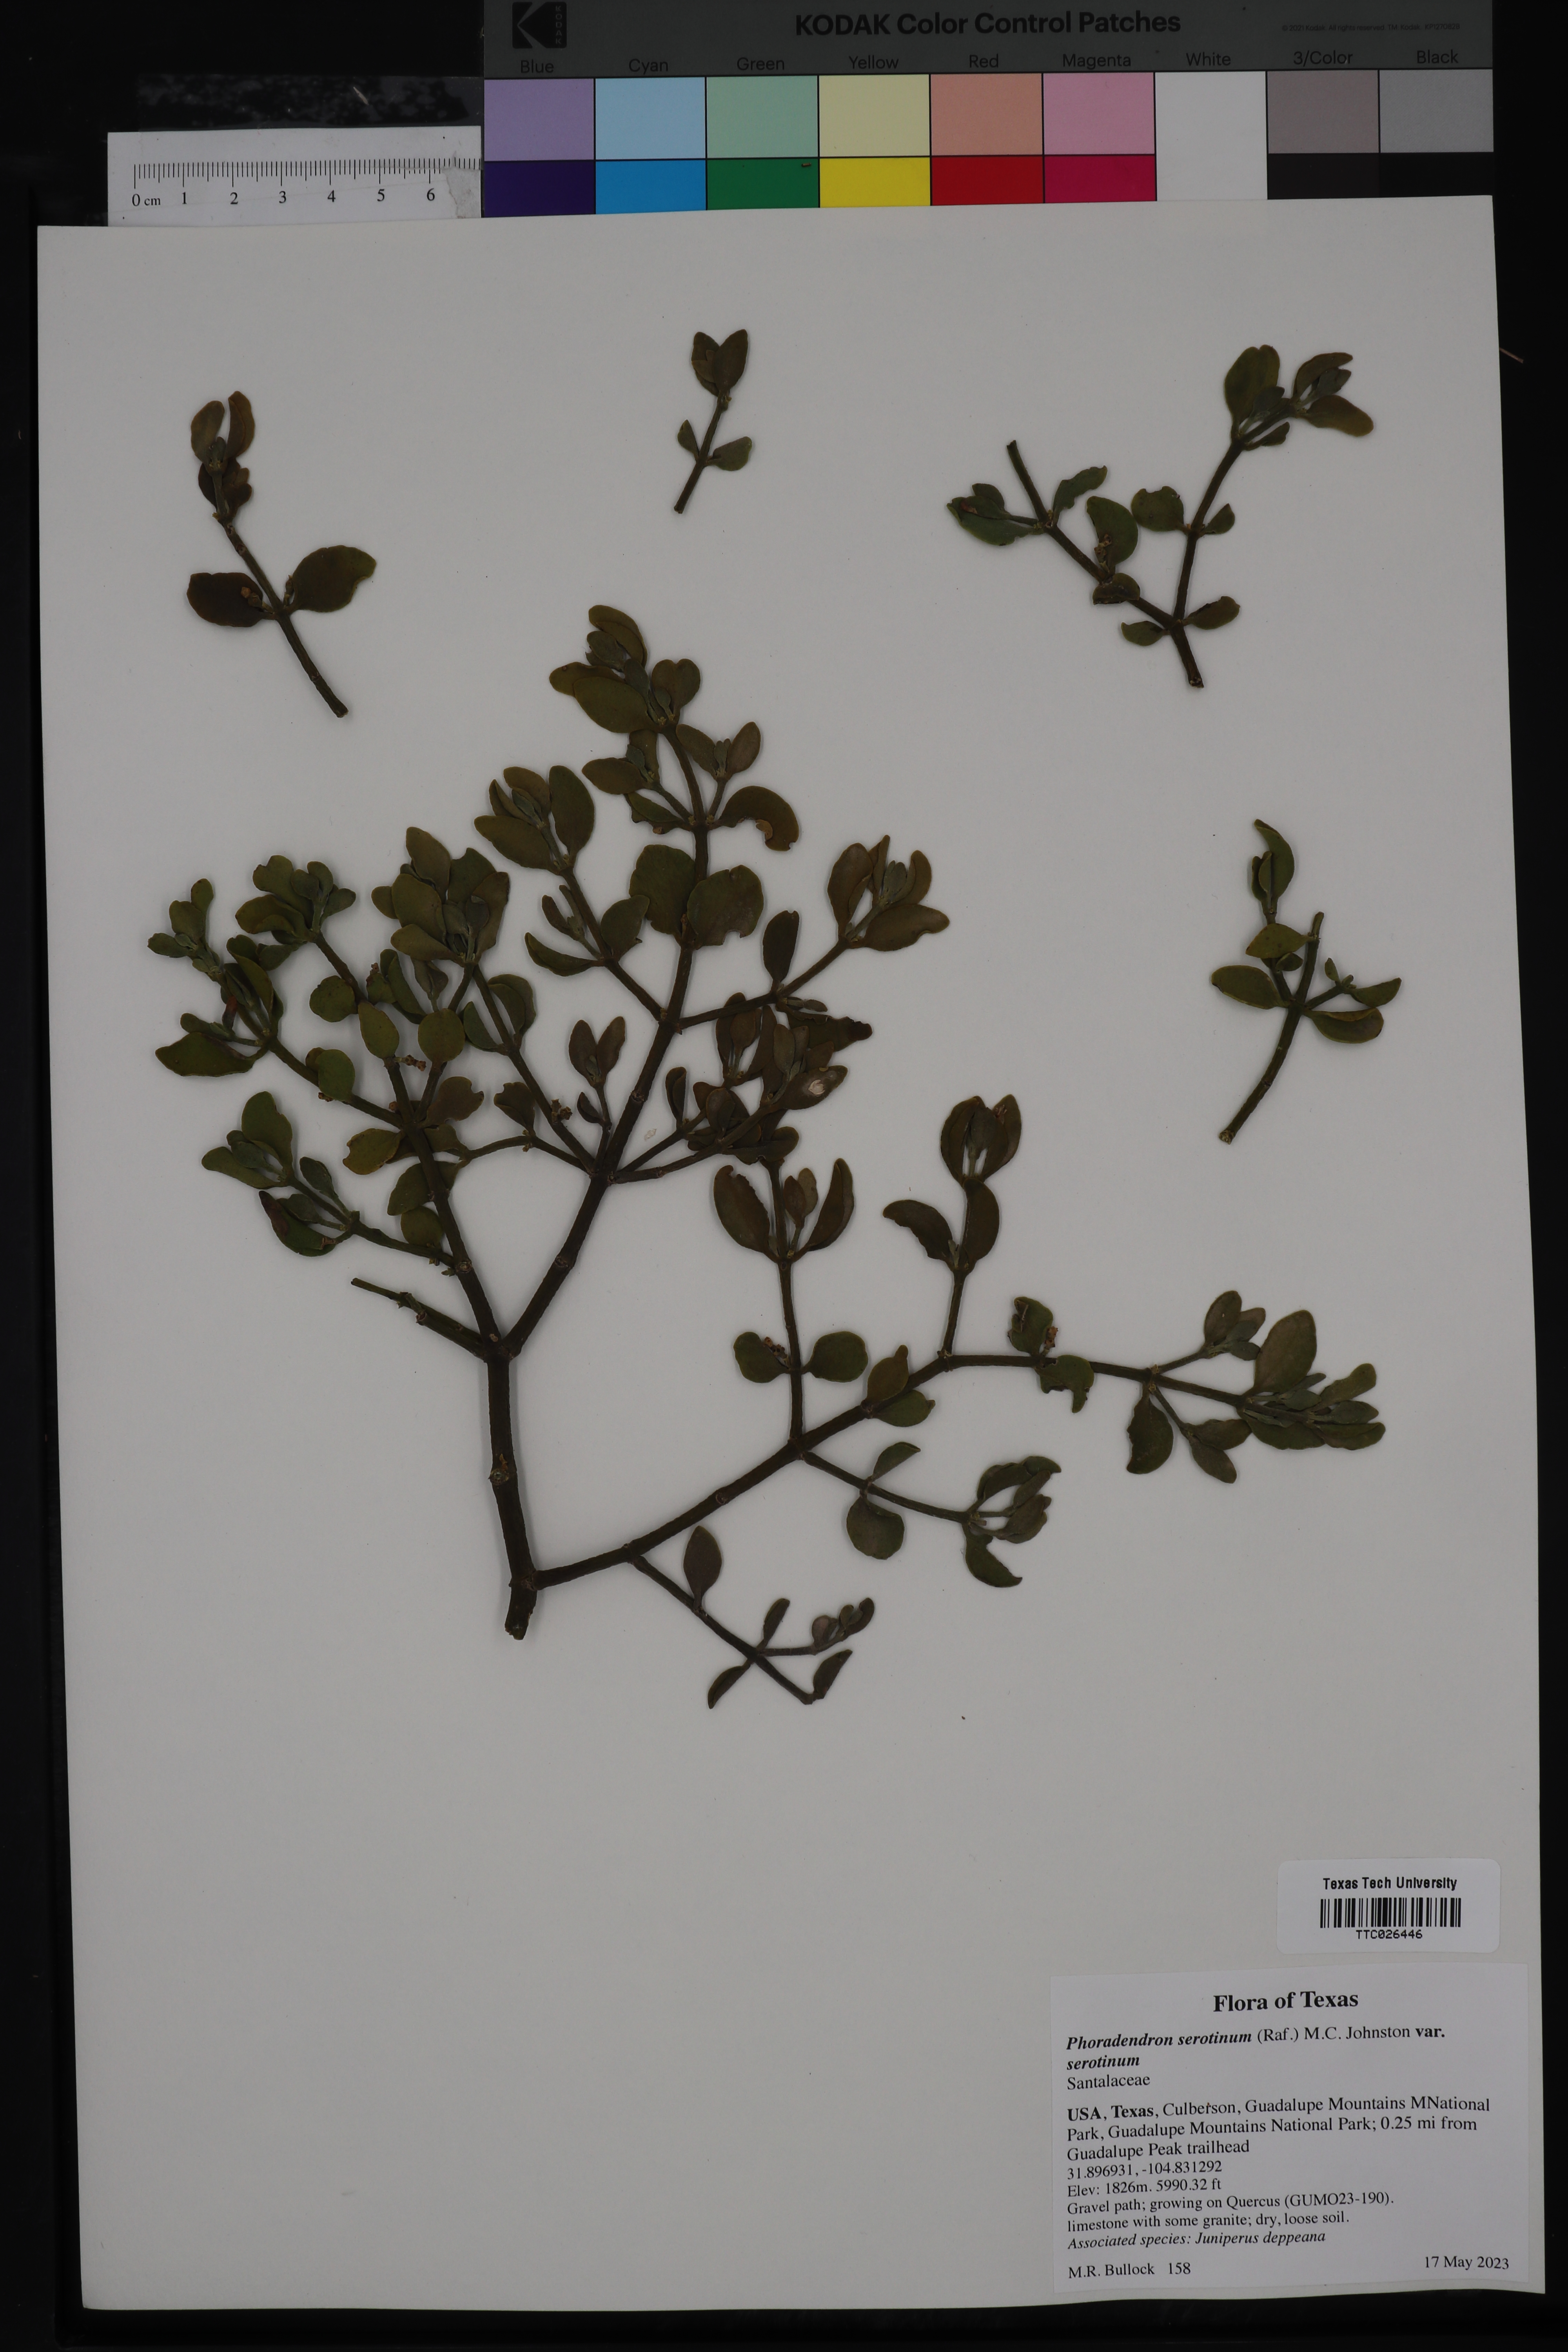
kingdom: Plantae
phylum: Tracheophyta
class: Magnoliopsida
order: Santalales
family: Viscaceae
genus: Phoradendron
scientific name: Phoradendron leucarpum
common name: Pacific mistletoe
